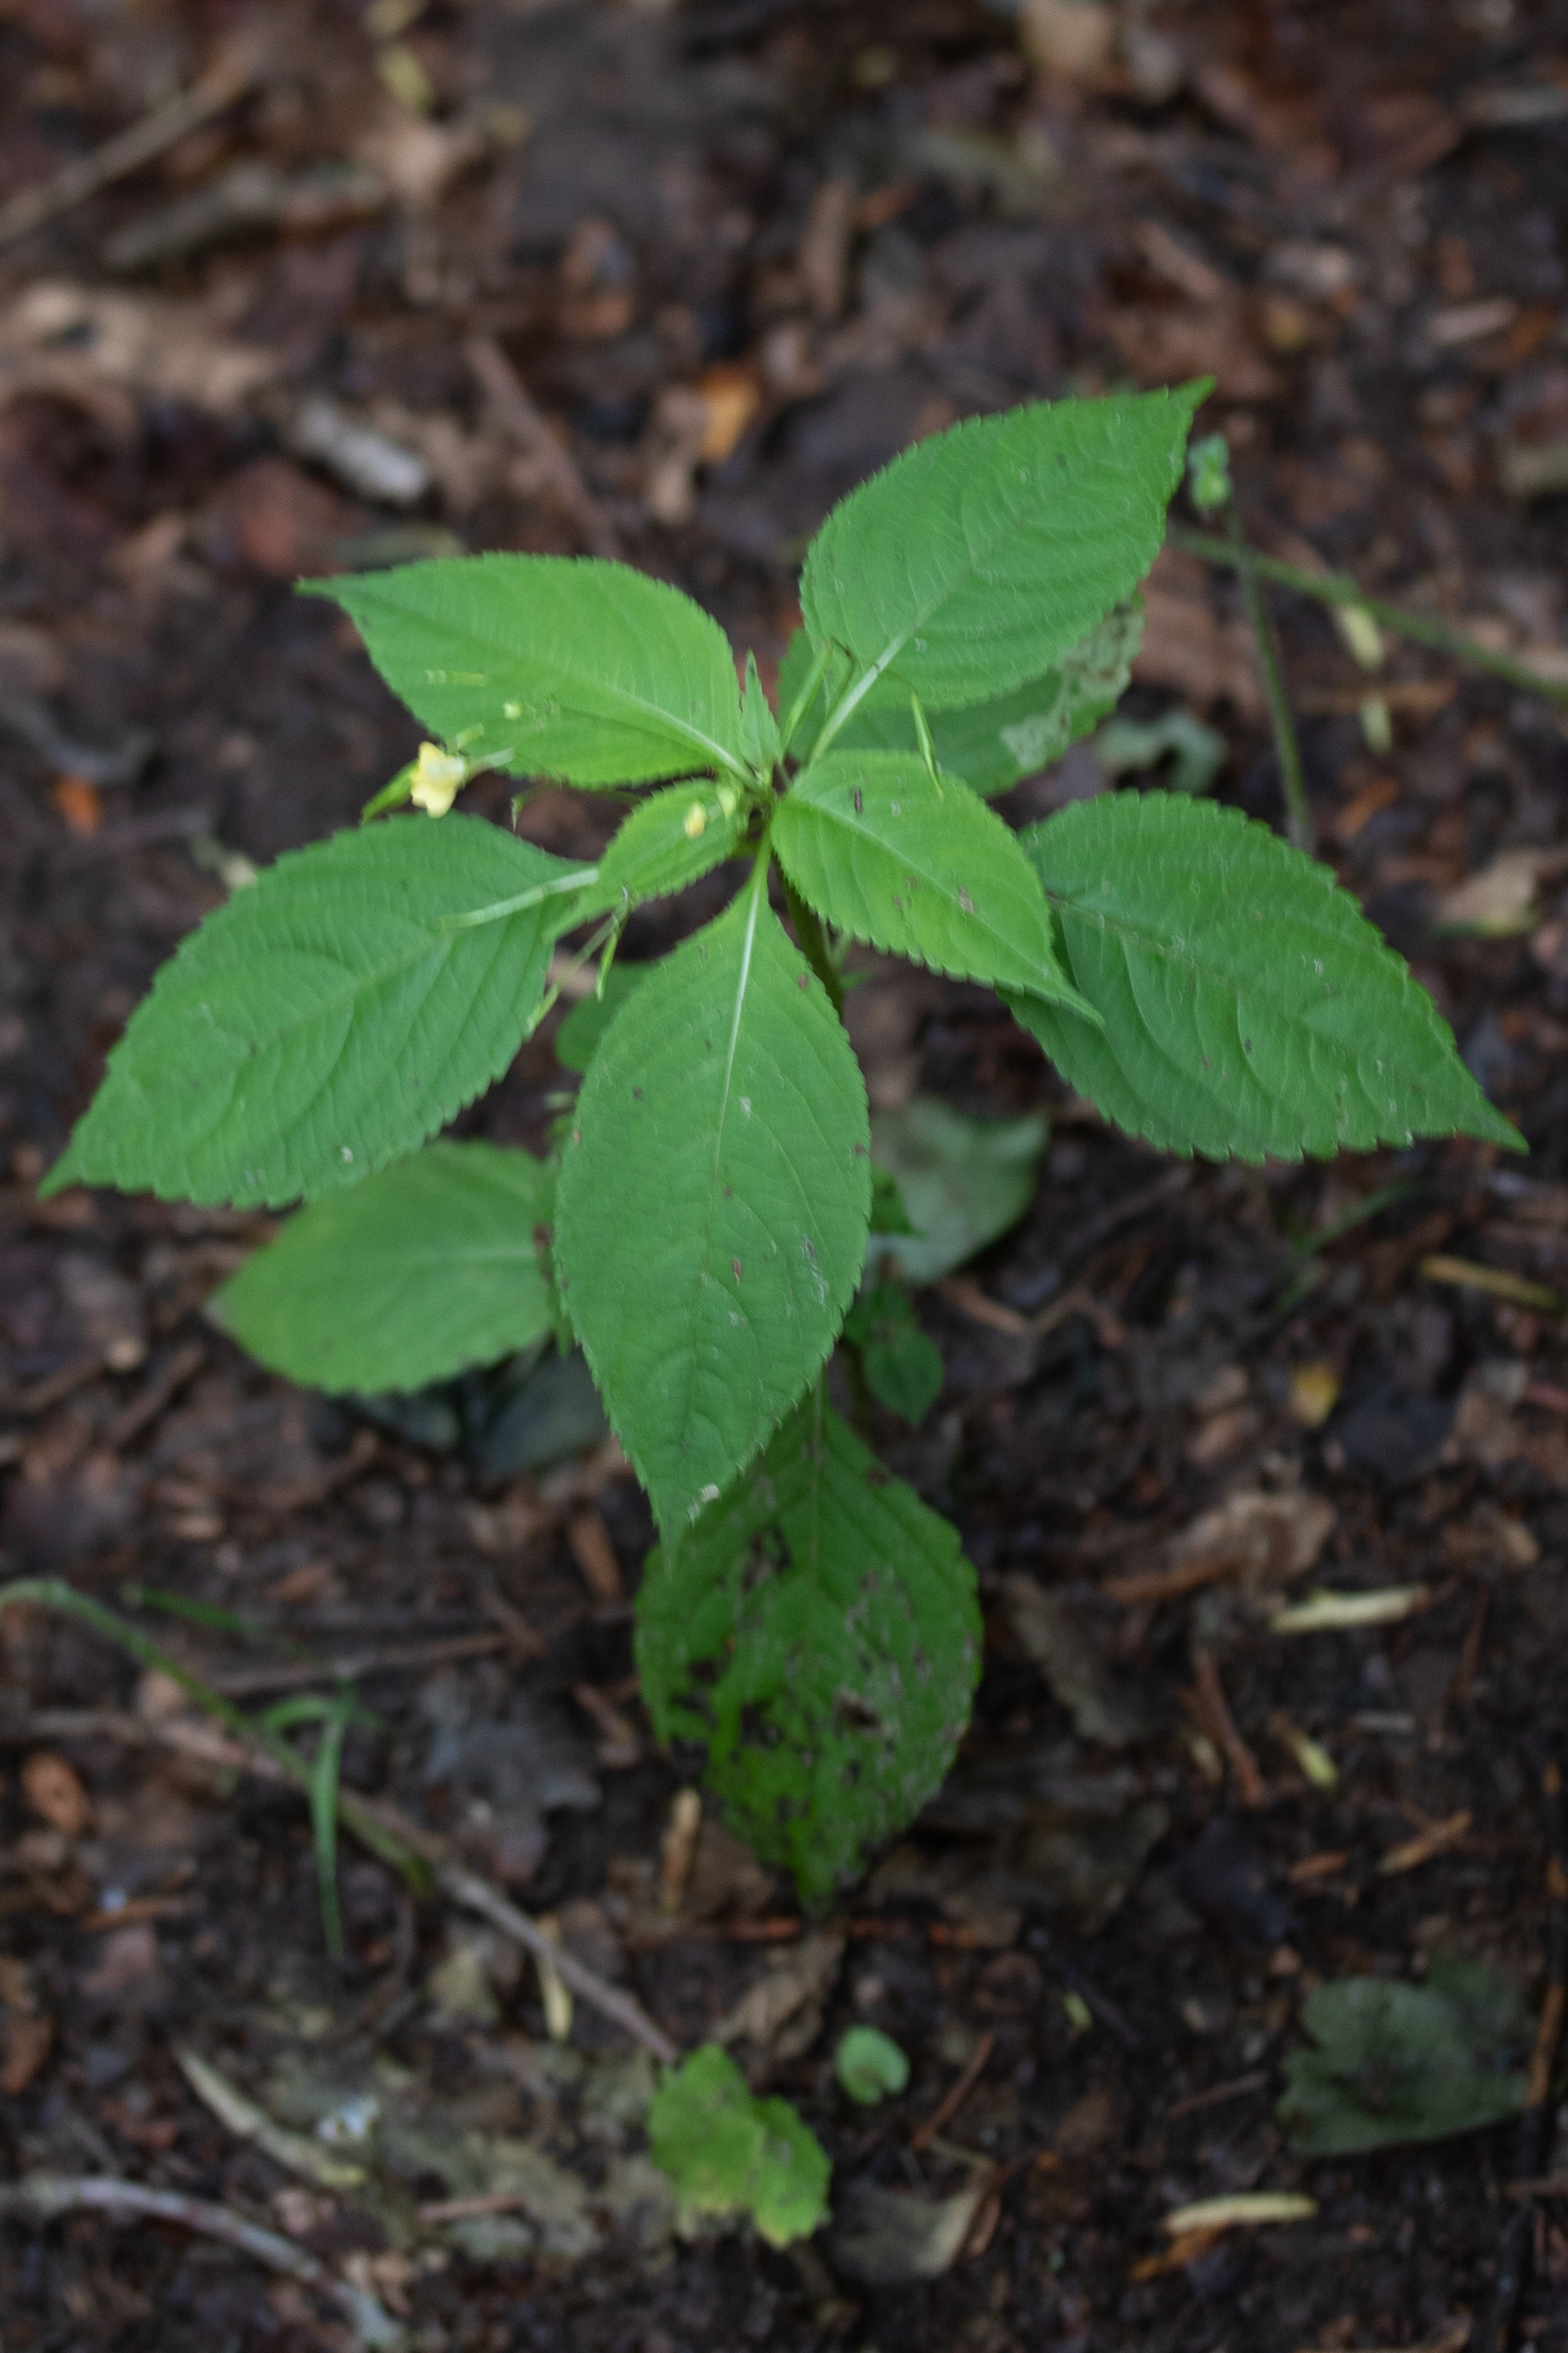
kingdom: Plantae
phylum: Tracheophyta
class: Magnoliopsida
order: Ericales
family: Balsaminaceae
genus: Impatiens
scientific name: Impatiens parviflora
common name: Småblomstret balsamin
